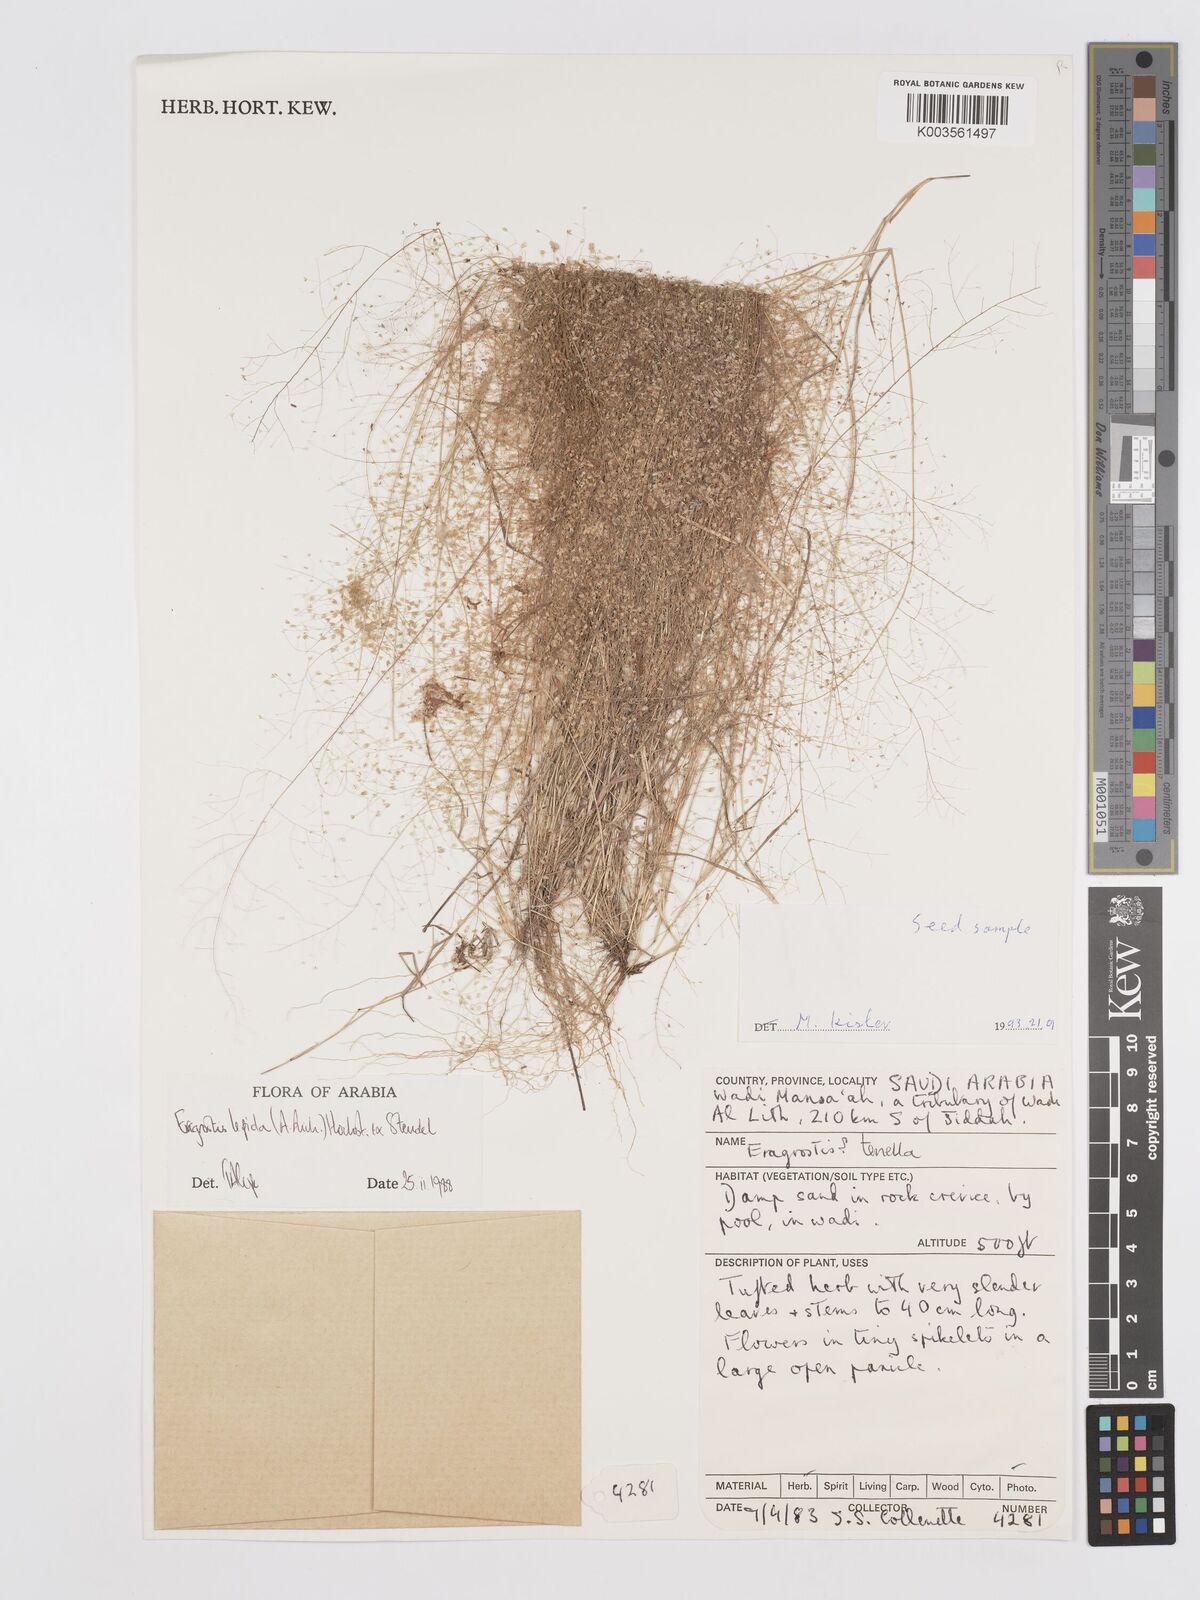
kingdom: Plantae
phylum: Tracheophyta
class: Liliopsida
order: Poales
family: Poaceae
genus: Eragrostis
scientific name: Eragrostis lepida
